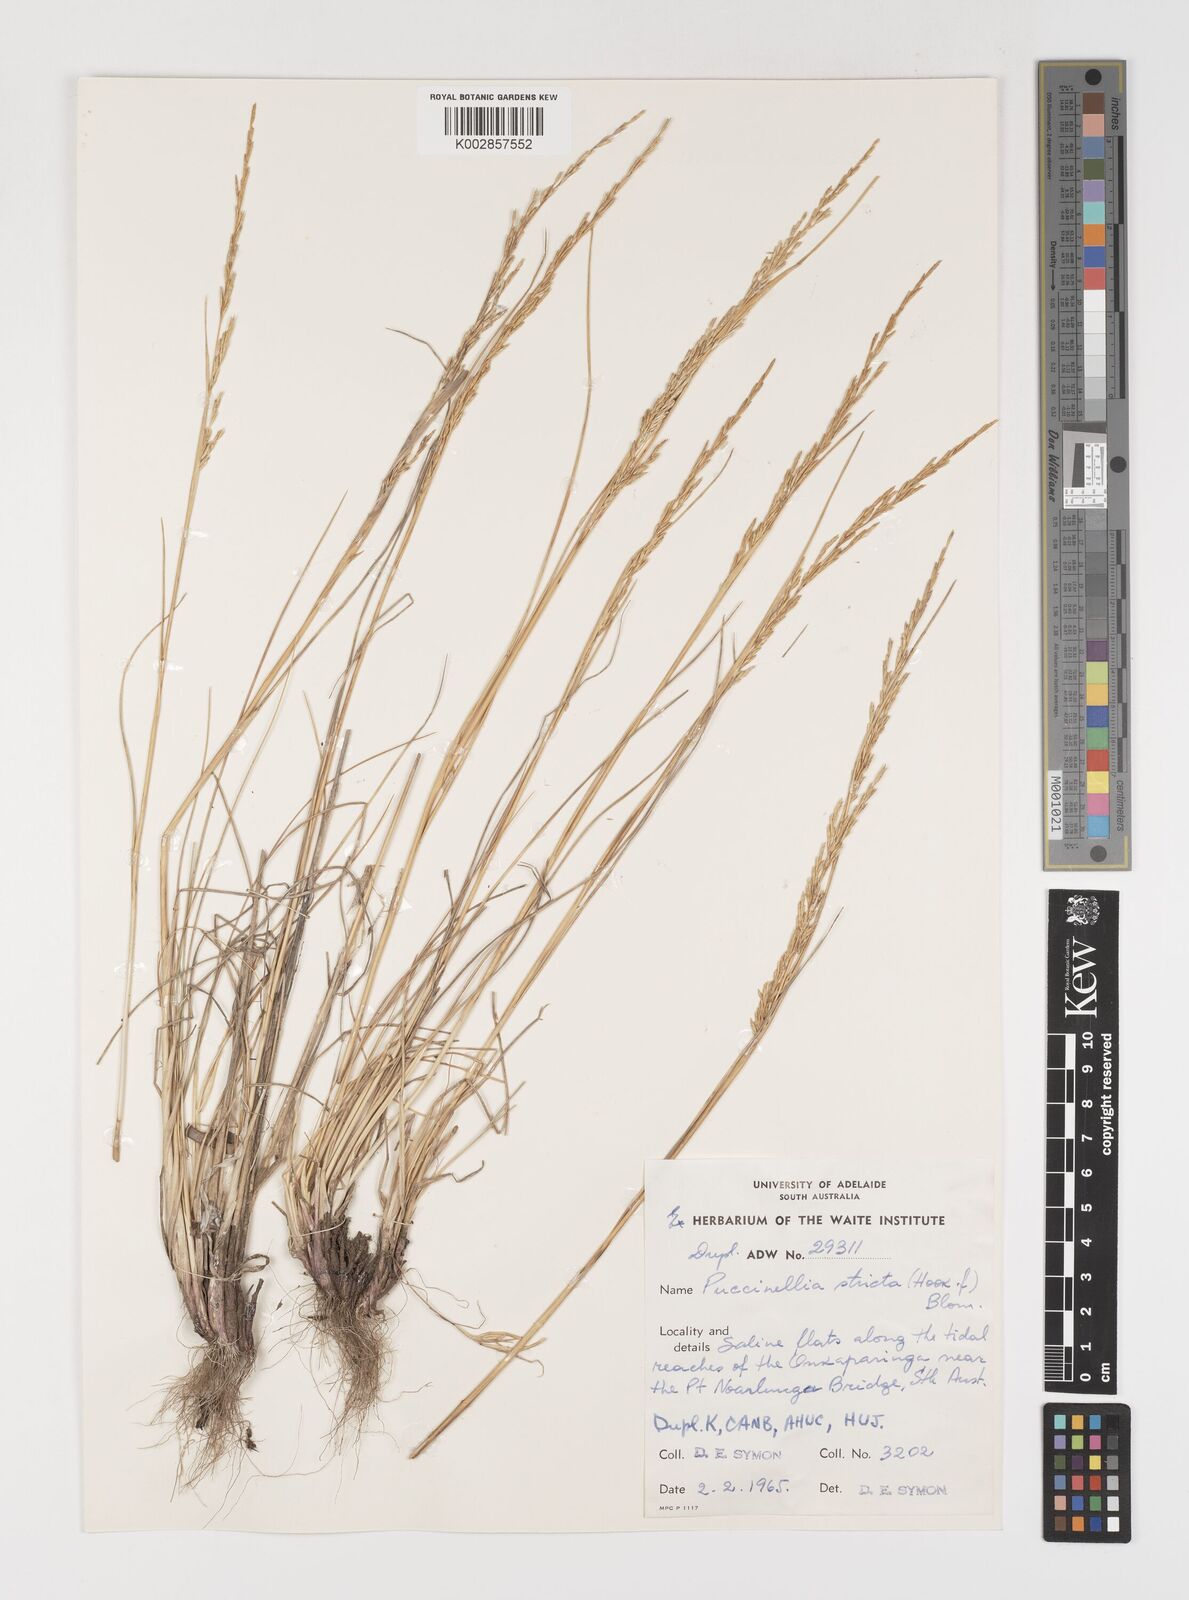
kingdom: Plantae
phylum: Tracheophyta
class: Liliopsida
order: Poales
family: Poaceae
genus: Puccinellia
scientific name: Puccinellia stricta
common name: Australian saltmarsh grass
